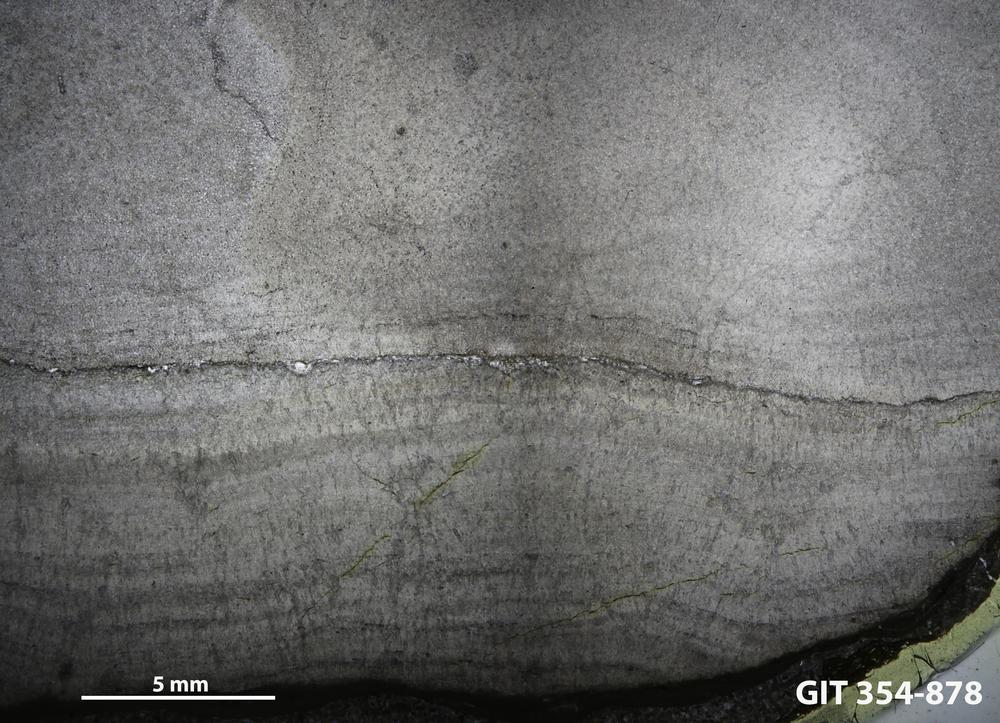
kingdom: Animalia
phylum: Porifera
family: Densastromatidae
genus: Densastroma
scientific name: Densastroma
